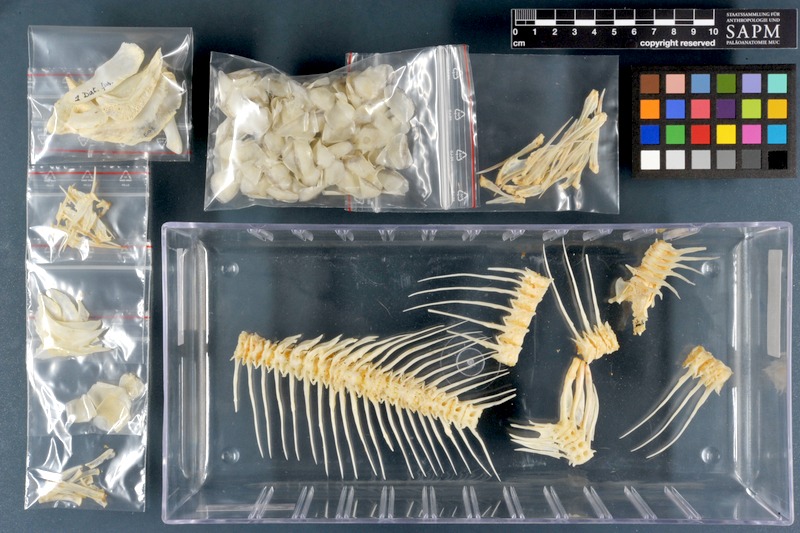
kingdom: Animalia
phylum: Chordata
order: Characiformes
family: Distichodontidae
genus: Distichodus
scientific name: Distichodus fasciolatus
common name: Many barred distichodus
